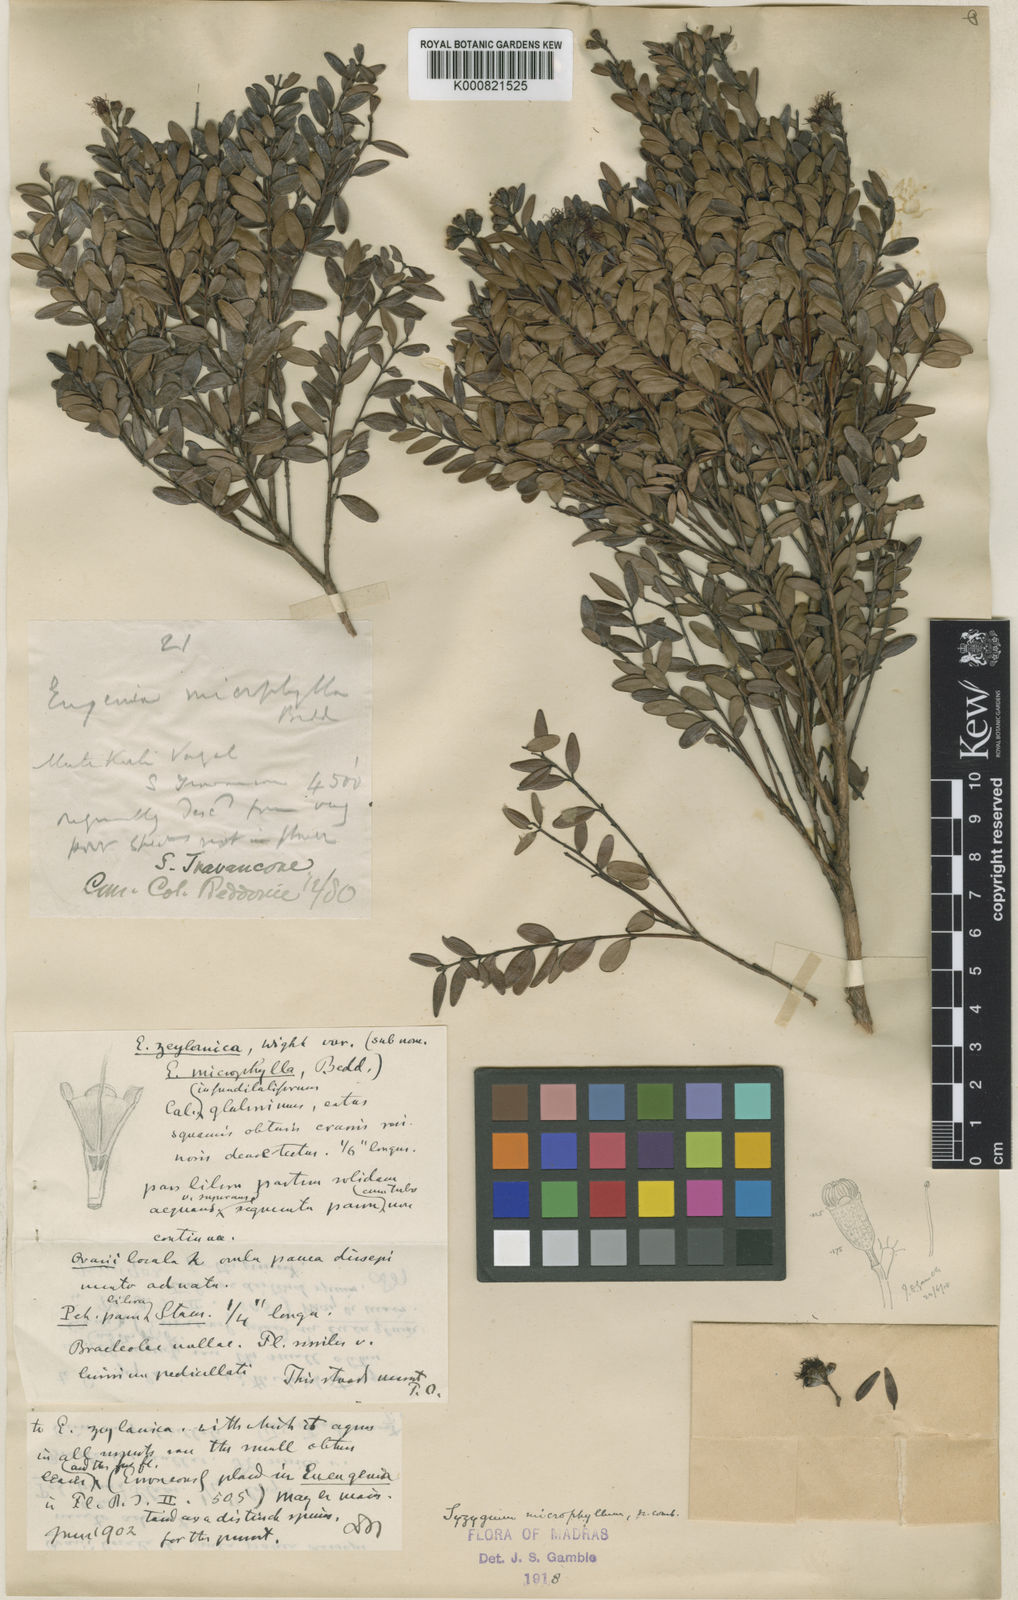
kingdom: Plantae
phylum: Tracheophyta
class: Magnoliopsida
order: Myrtales
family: Myrtaceae
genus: Syzygium
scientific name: Syzygium microphyllum
